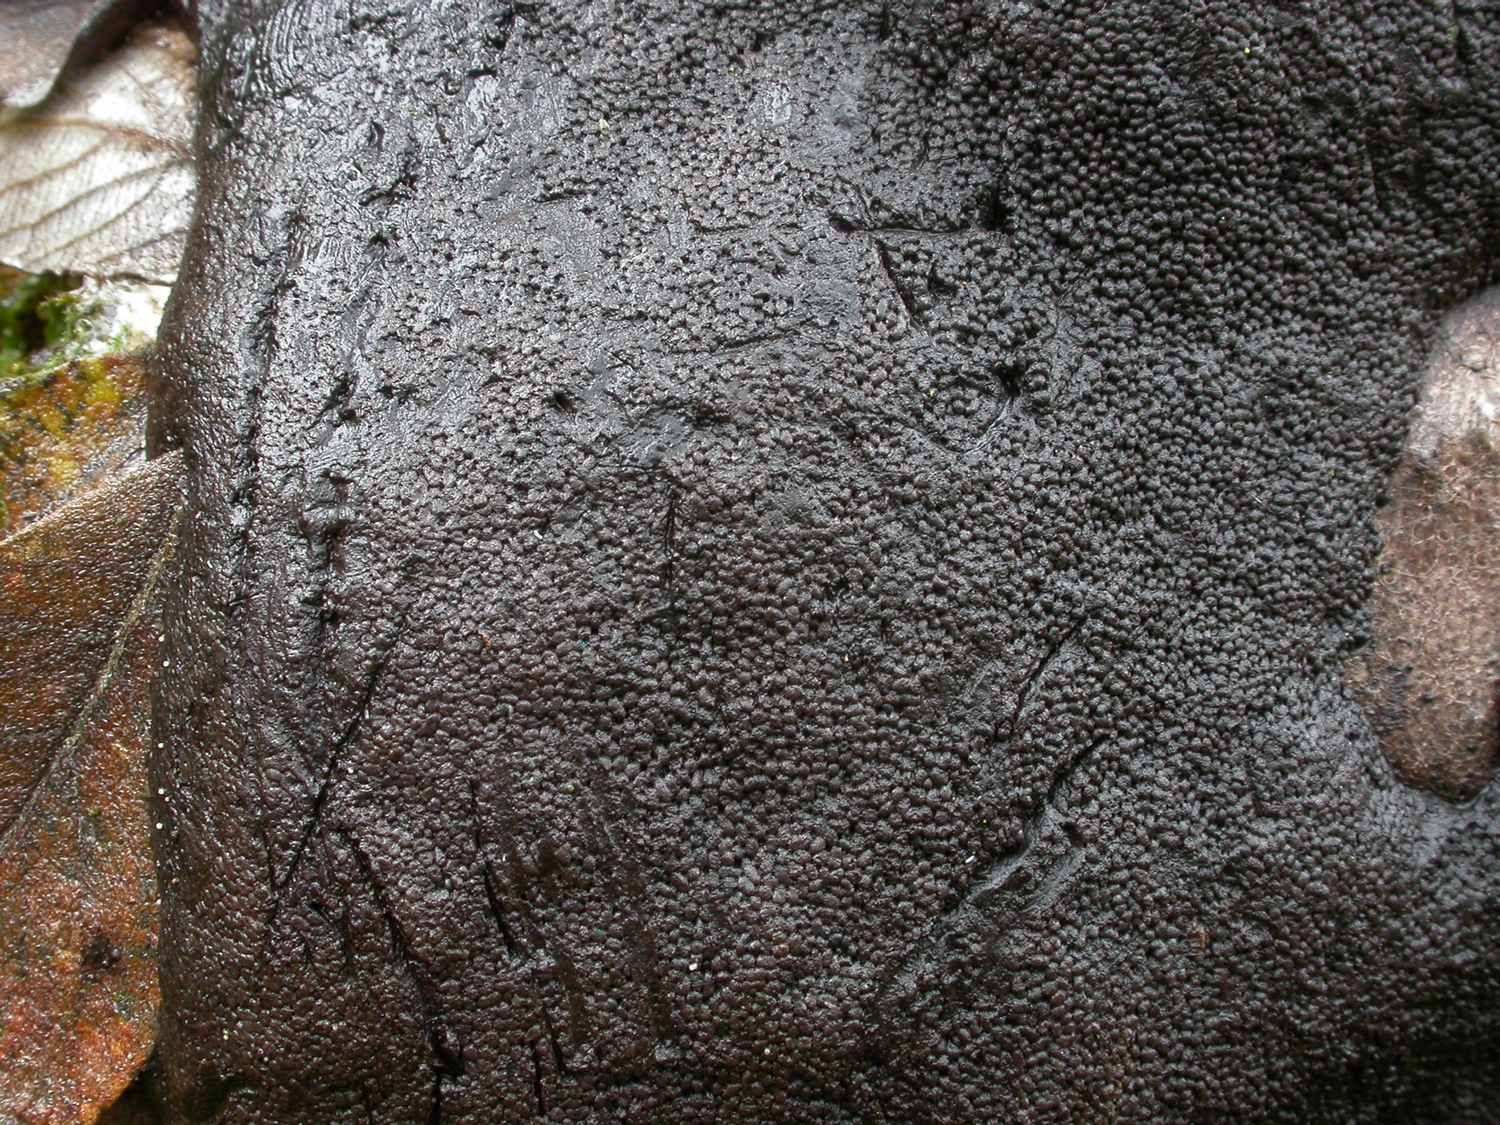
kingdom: Protozoa
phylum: Mycetozoa
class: Myxomycetes
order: Stemonitidales
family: Stemonitidaceae
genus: Brefeldia
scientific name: Brefeldia maxima
